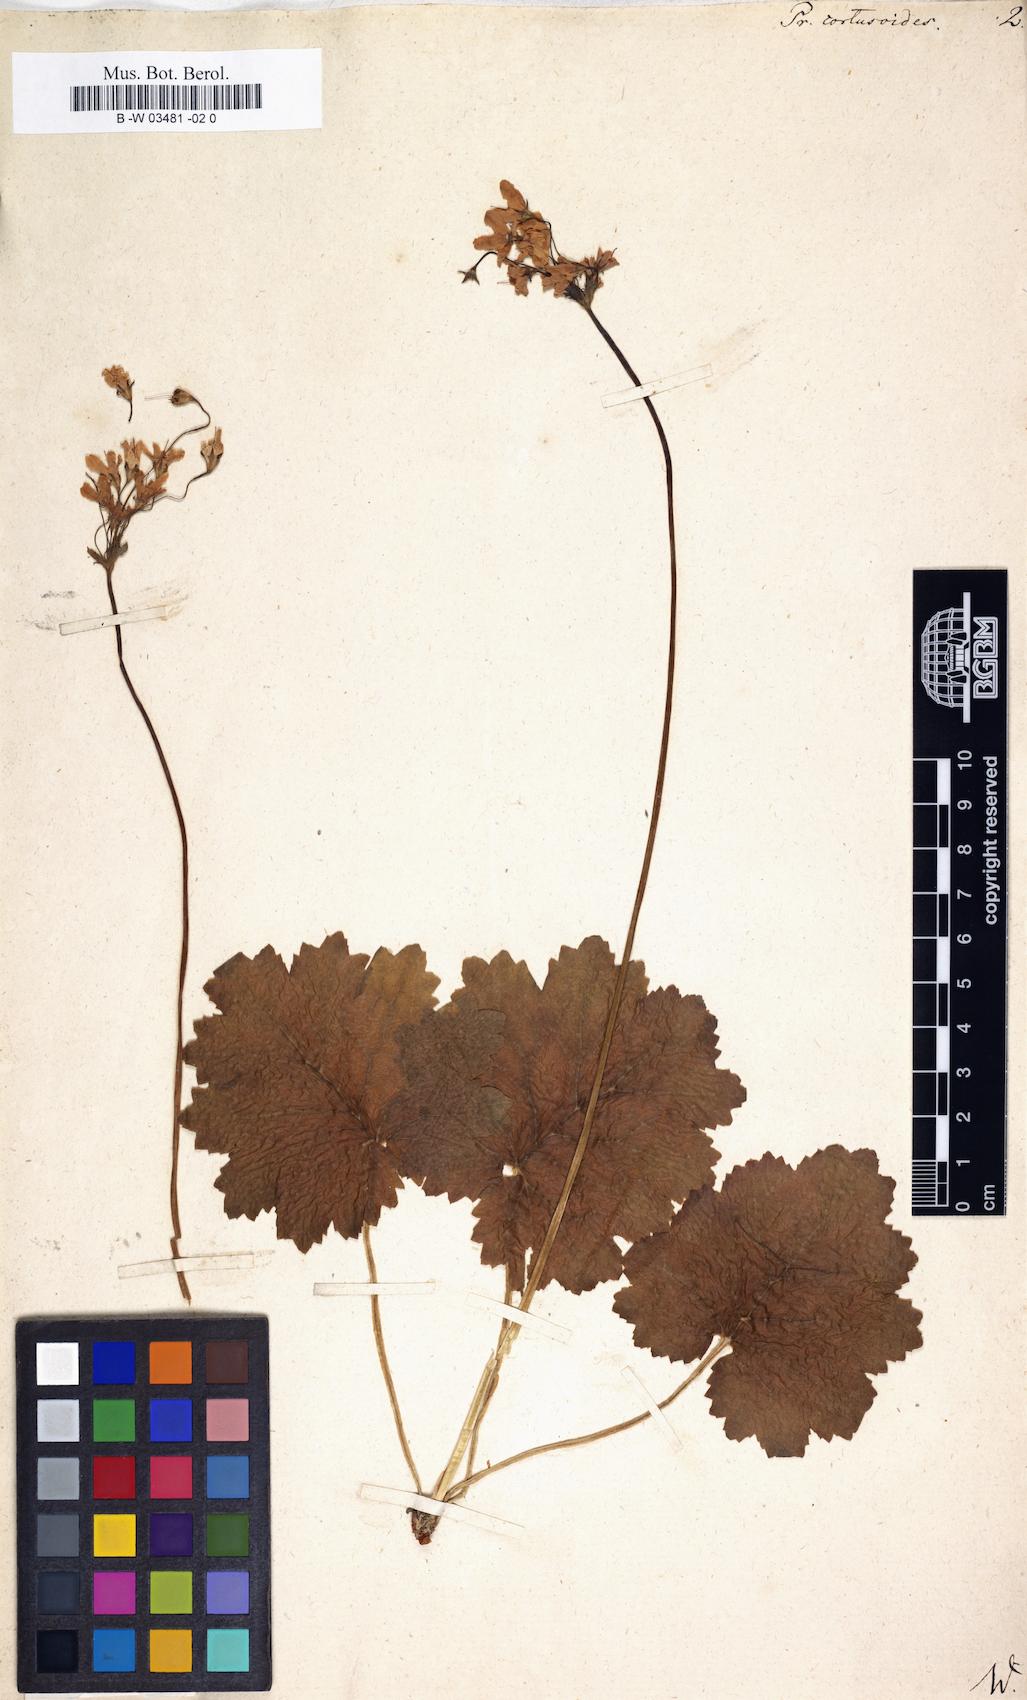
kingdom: Plantae
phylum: Tracheophyta
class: Magnoliopsida
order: Ericales
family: Primulaceae
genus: Primula
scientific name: Primula cortusoides
